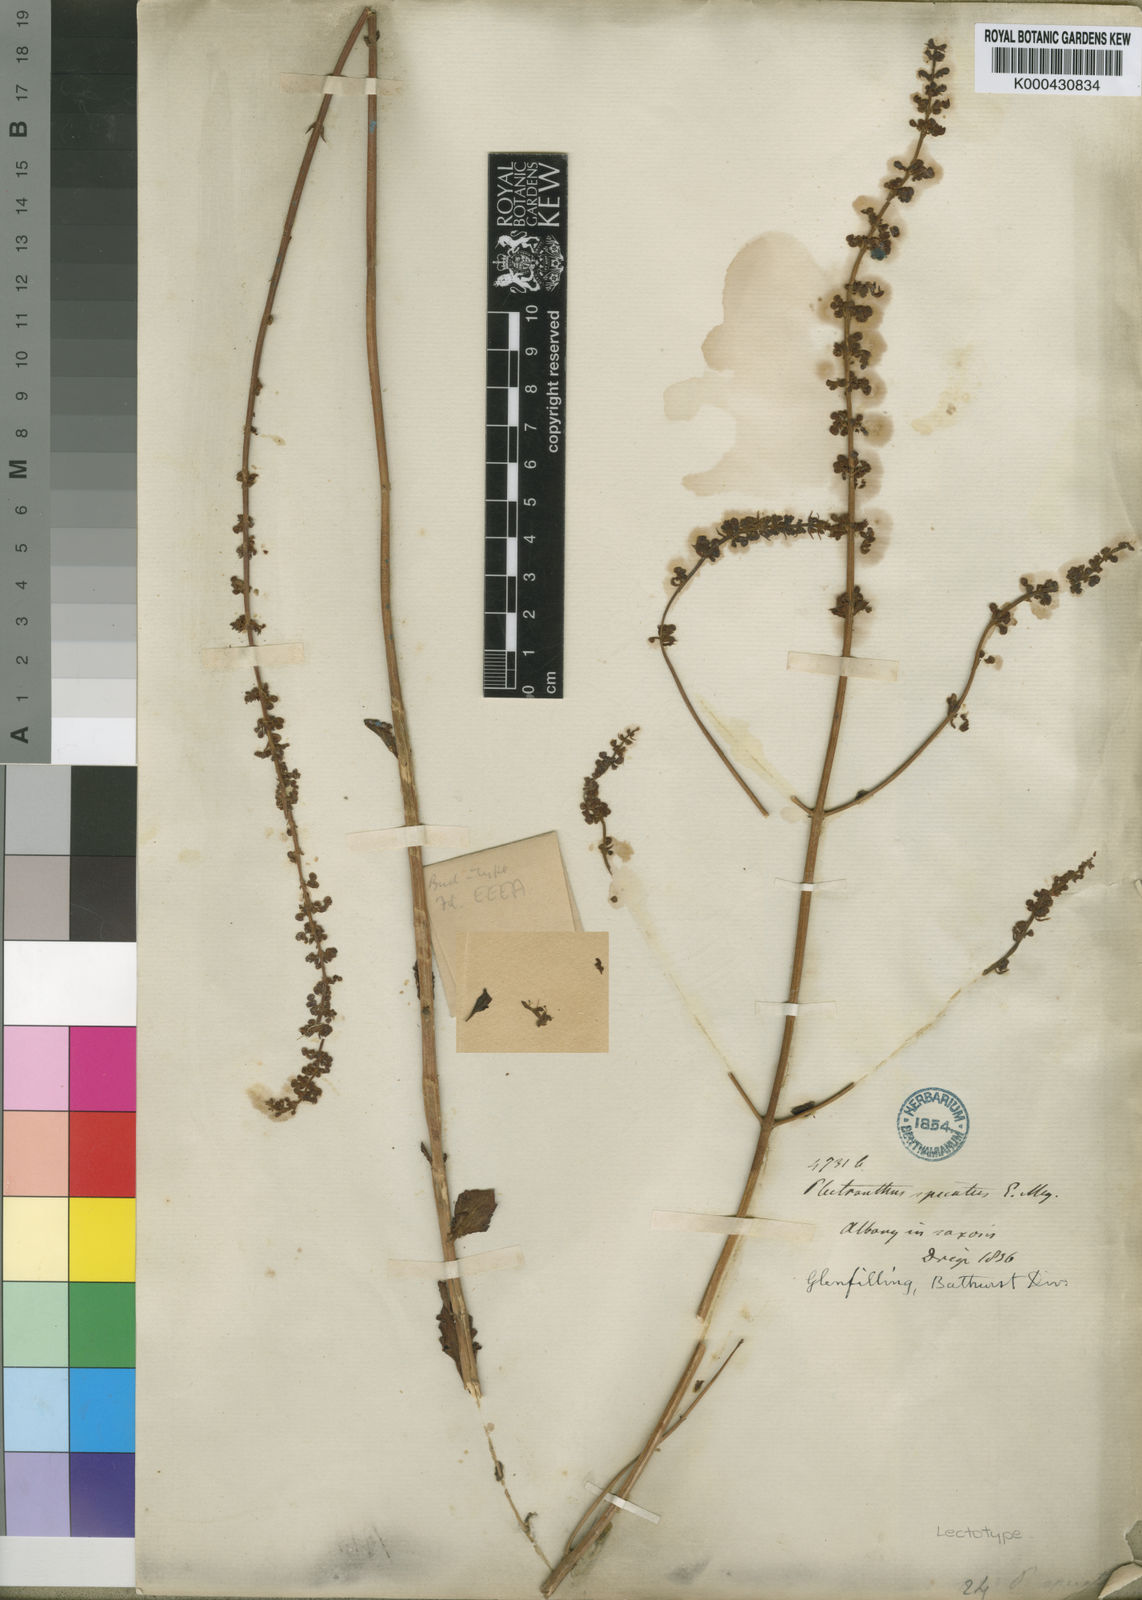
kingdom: Plantae
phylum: Tracheophyta
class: Magnoliopsida
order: Lamiales
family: Lamiaceae
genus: Plectranthus
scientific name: Plectranthus
